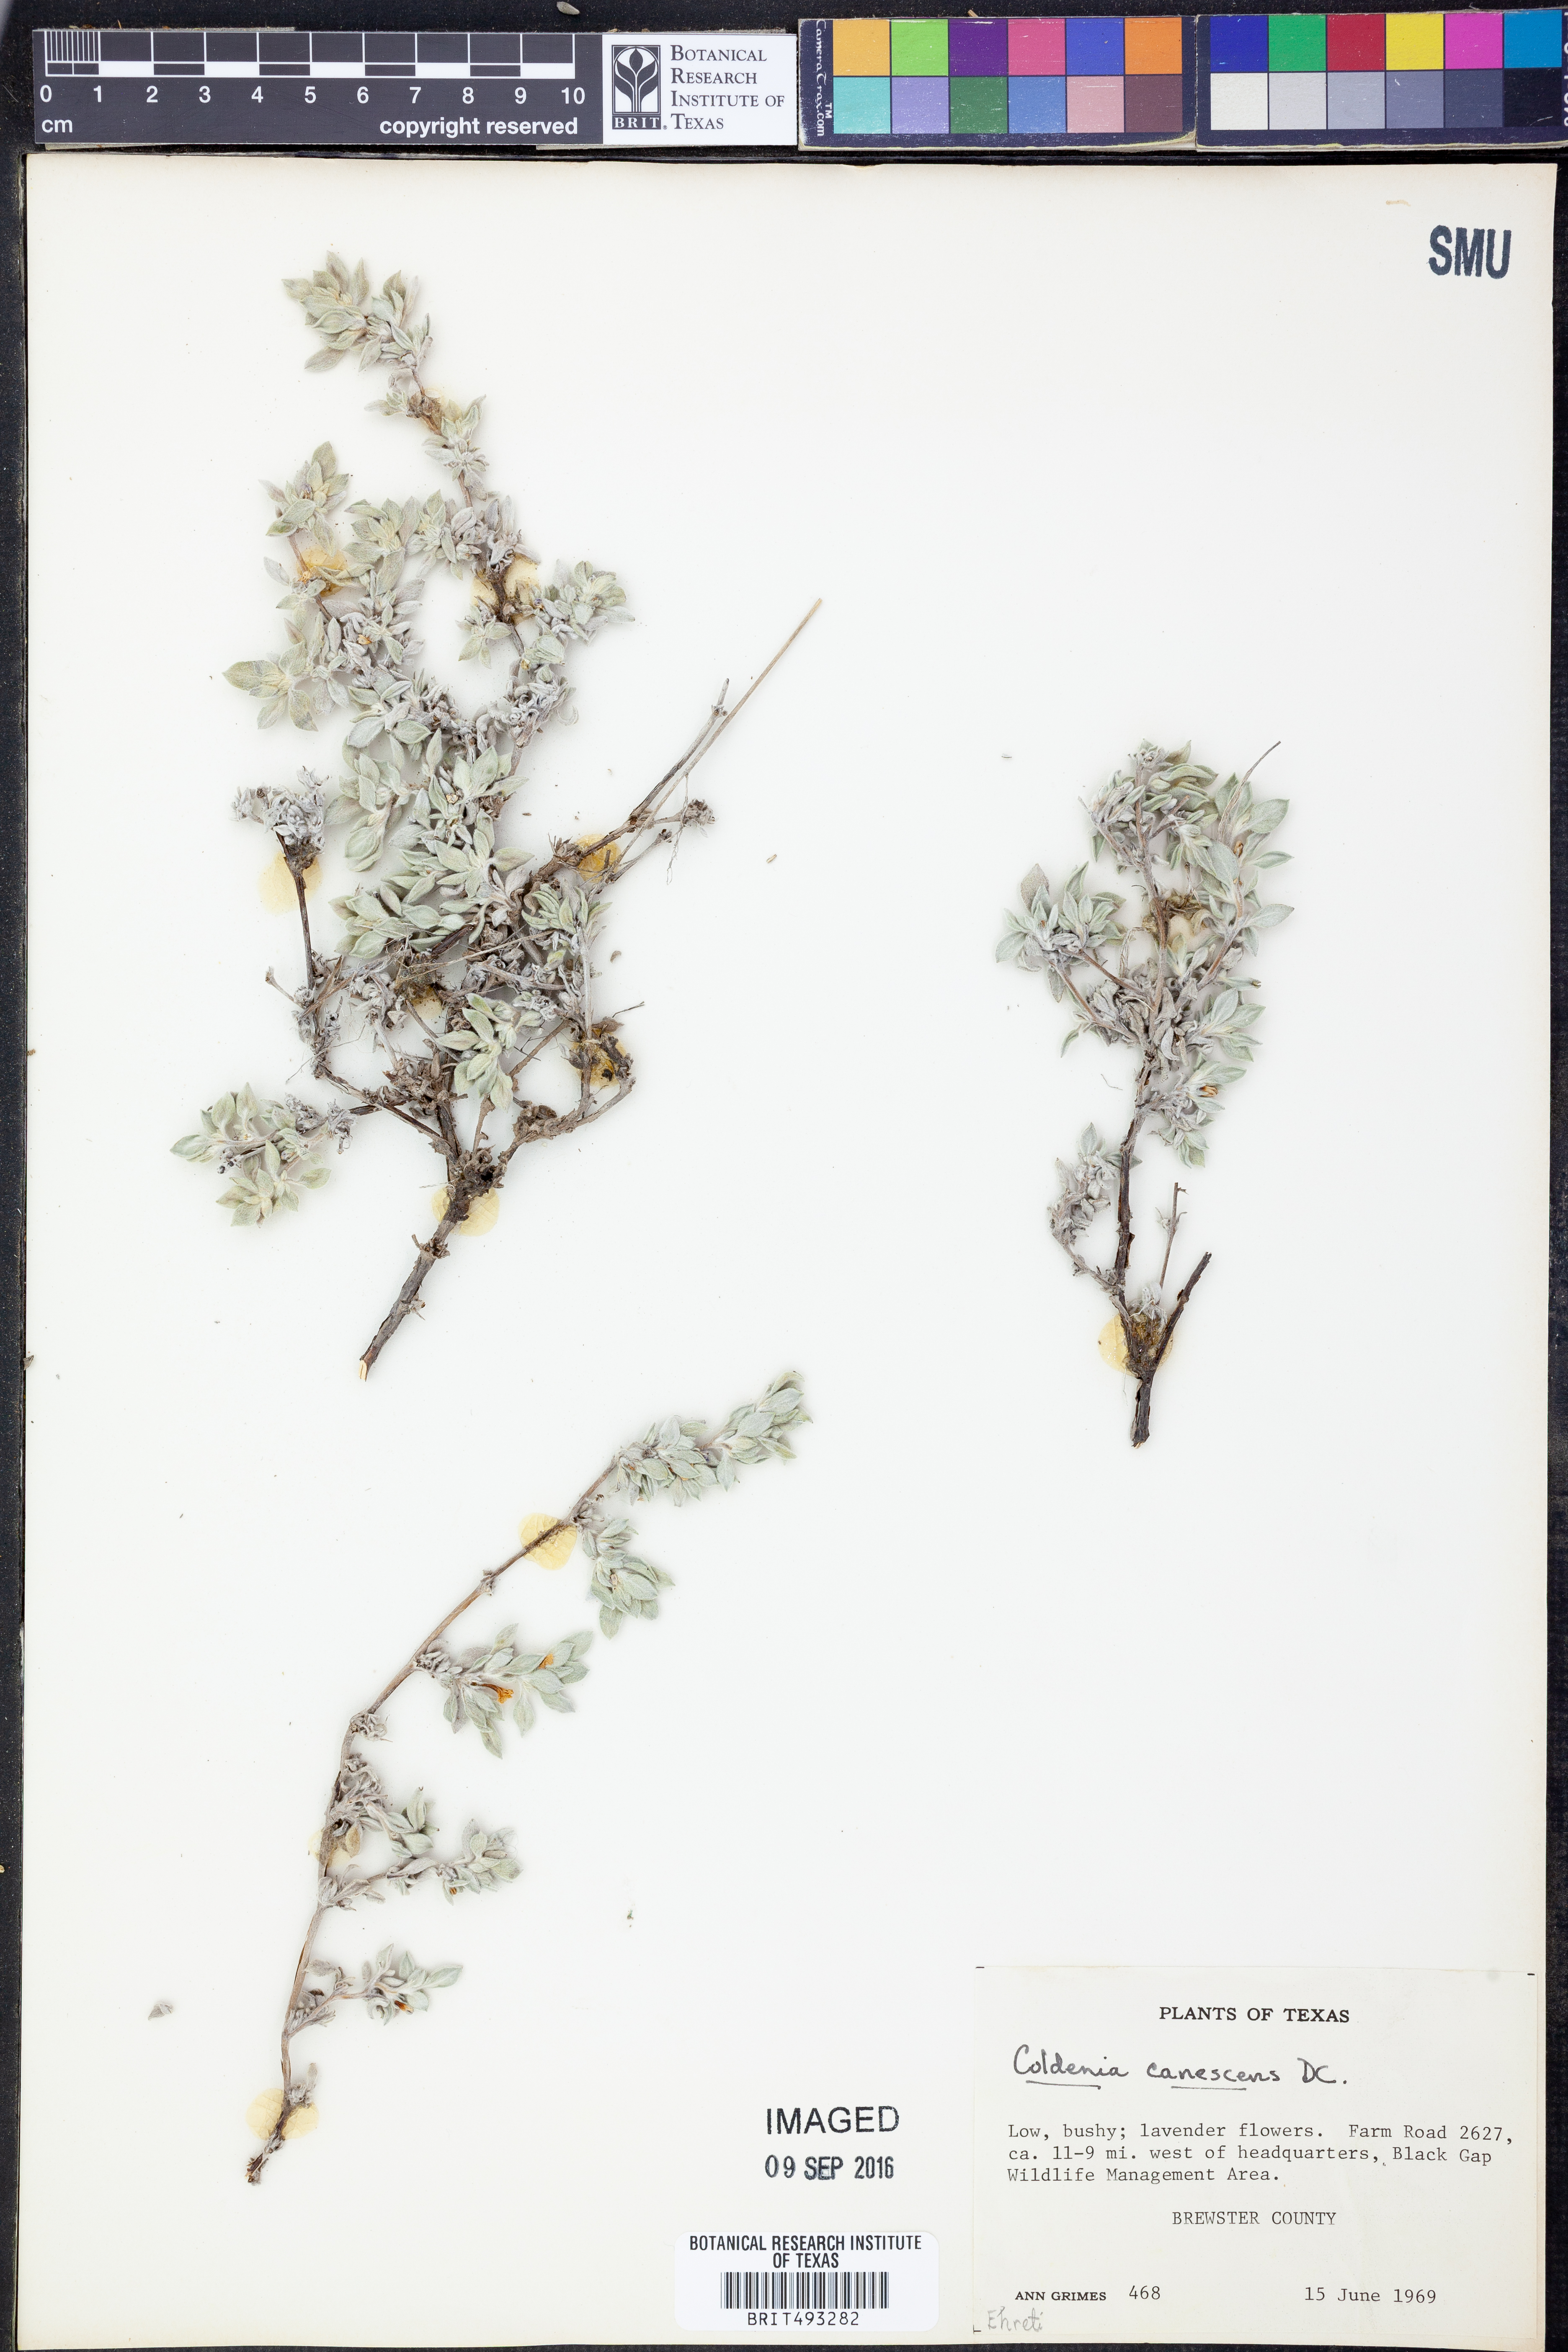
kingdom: Plantae
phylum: Tracheophyta
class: Magnoliopsida
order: Boraginales
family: Ehretiaceae
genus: Tiquilia
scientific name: Tiquilia canescens
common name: Hairy tiquilia
